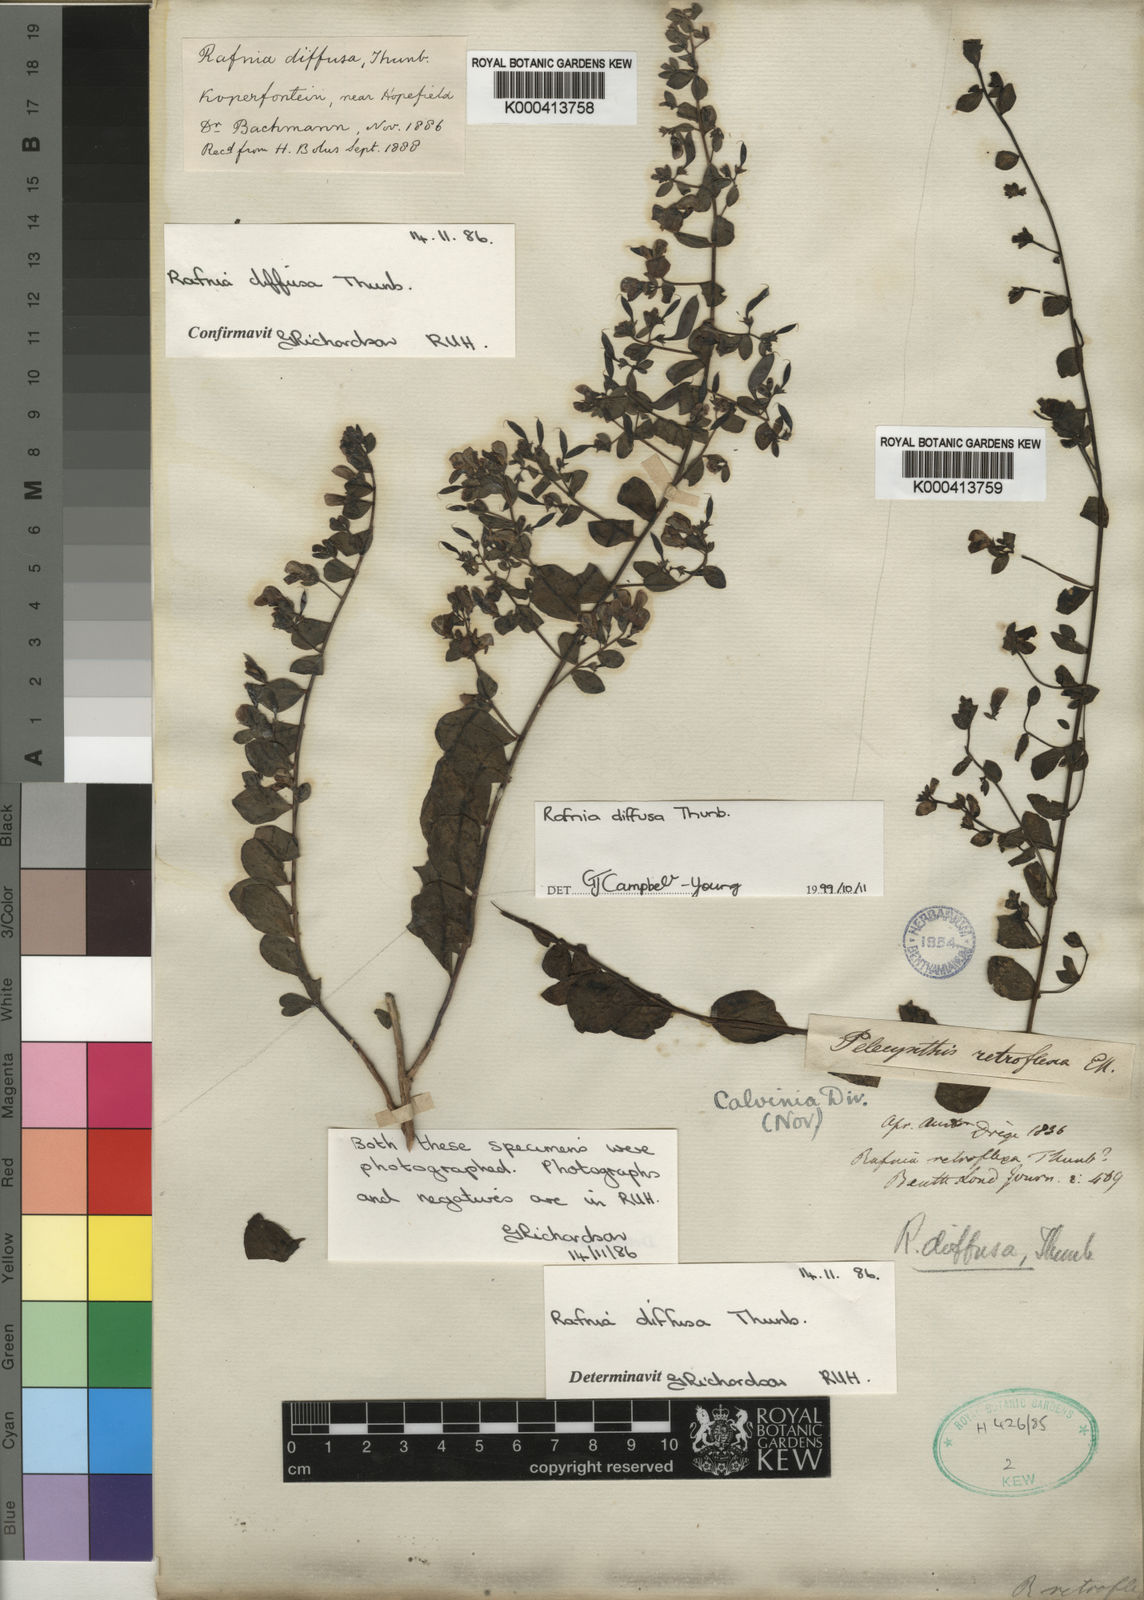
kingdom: Plantae
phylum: Tracheophyta
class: Magnoliopsida
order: Fabales
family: Fabaceae
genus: Rafnia
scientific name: Rafnia diffusa
